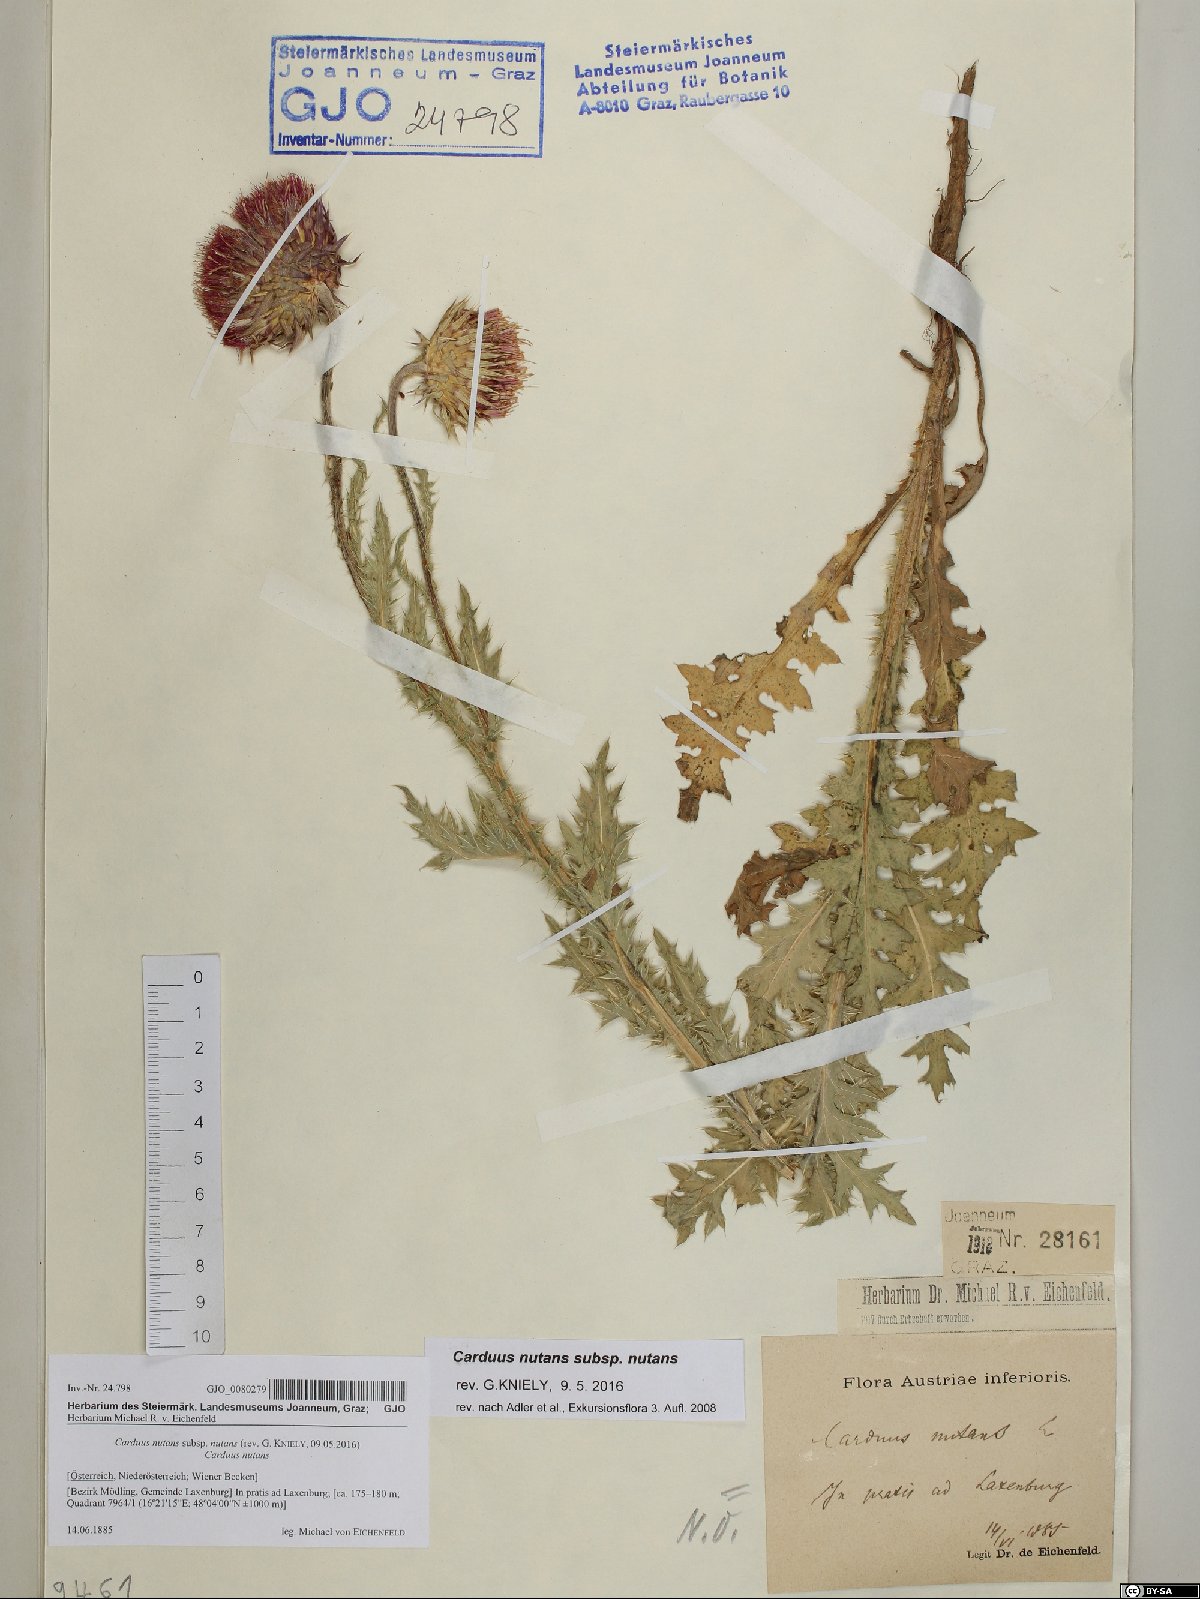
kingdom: Plantae
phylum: Tracheophyta
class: Magnoliopsida
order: Asterales
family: Asteraceae
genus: Carduus
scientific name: Carduus nutans
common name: Musk thistle
